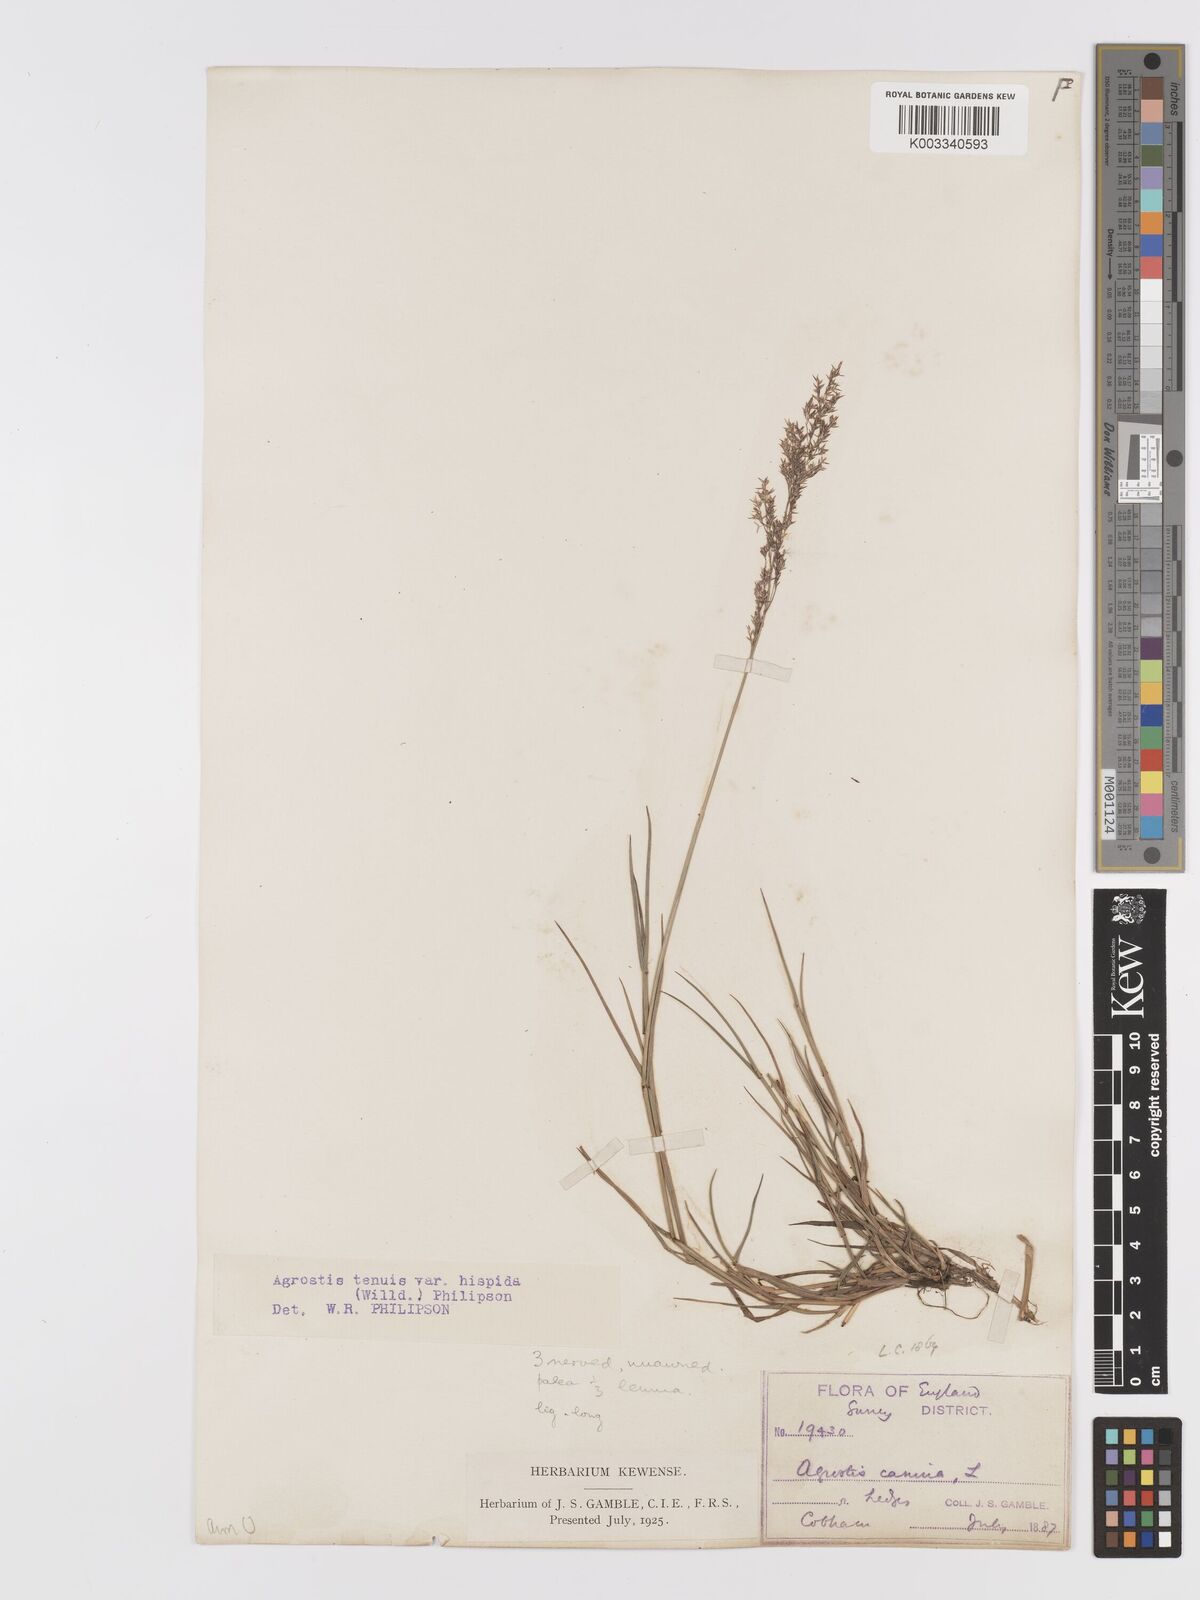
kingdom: Plantae
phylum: Tracheophyta
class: Liliopsida
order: Poales
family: Poaceae
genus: Agrostis
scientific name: Agrostis capillaris
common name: Colonial bentgrass
